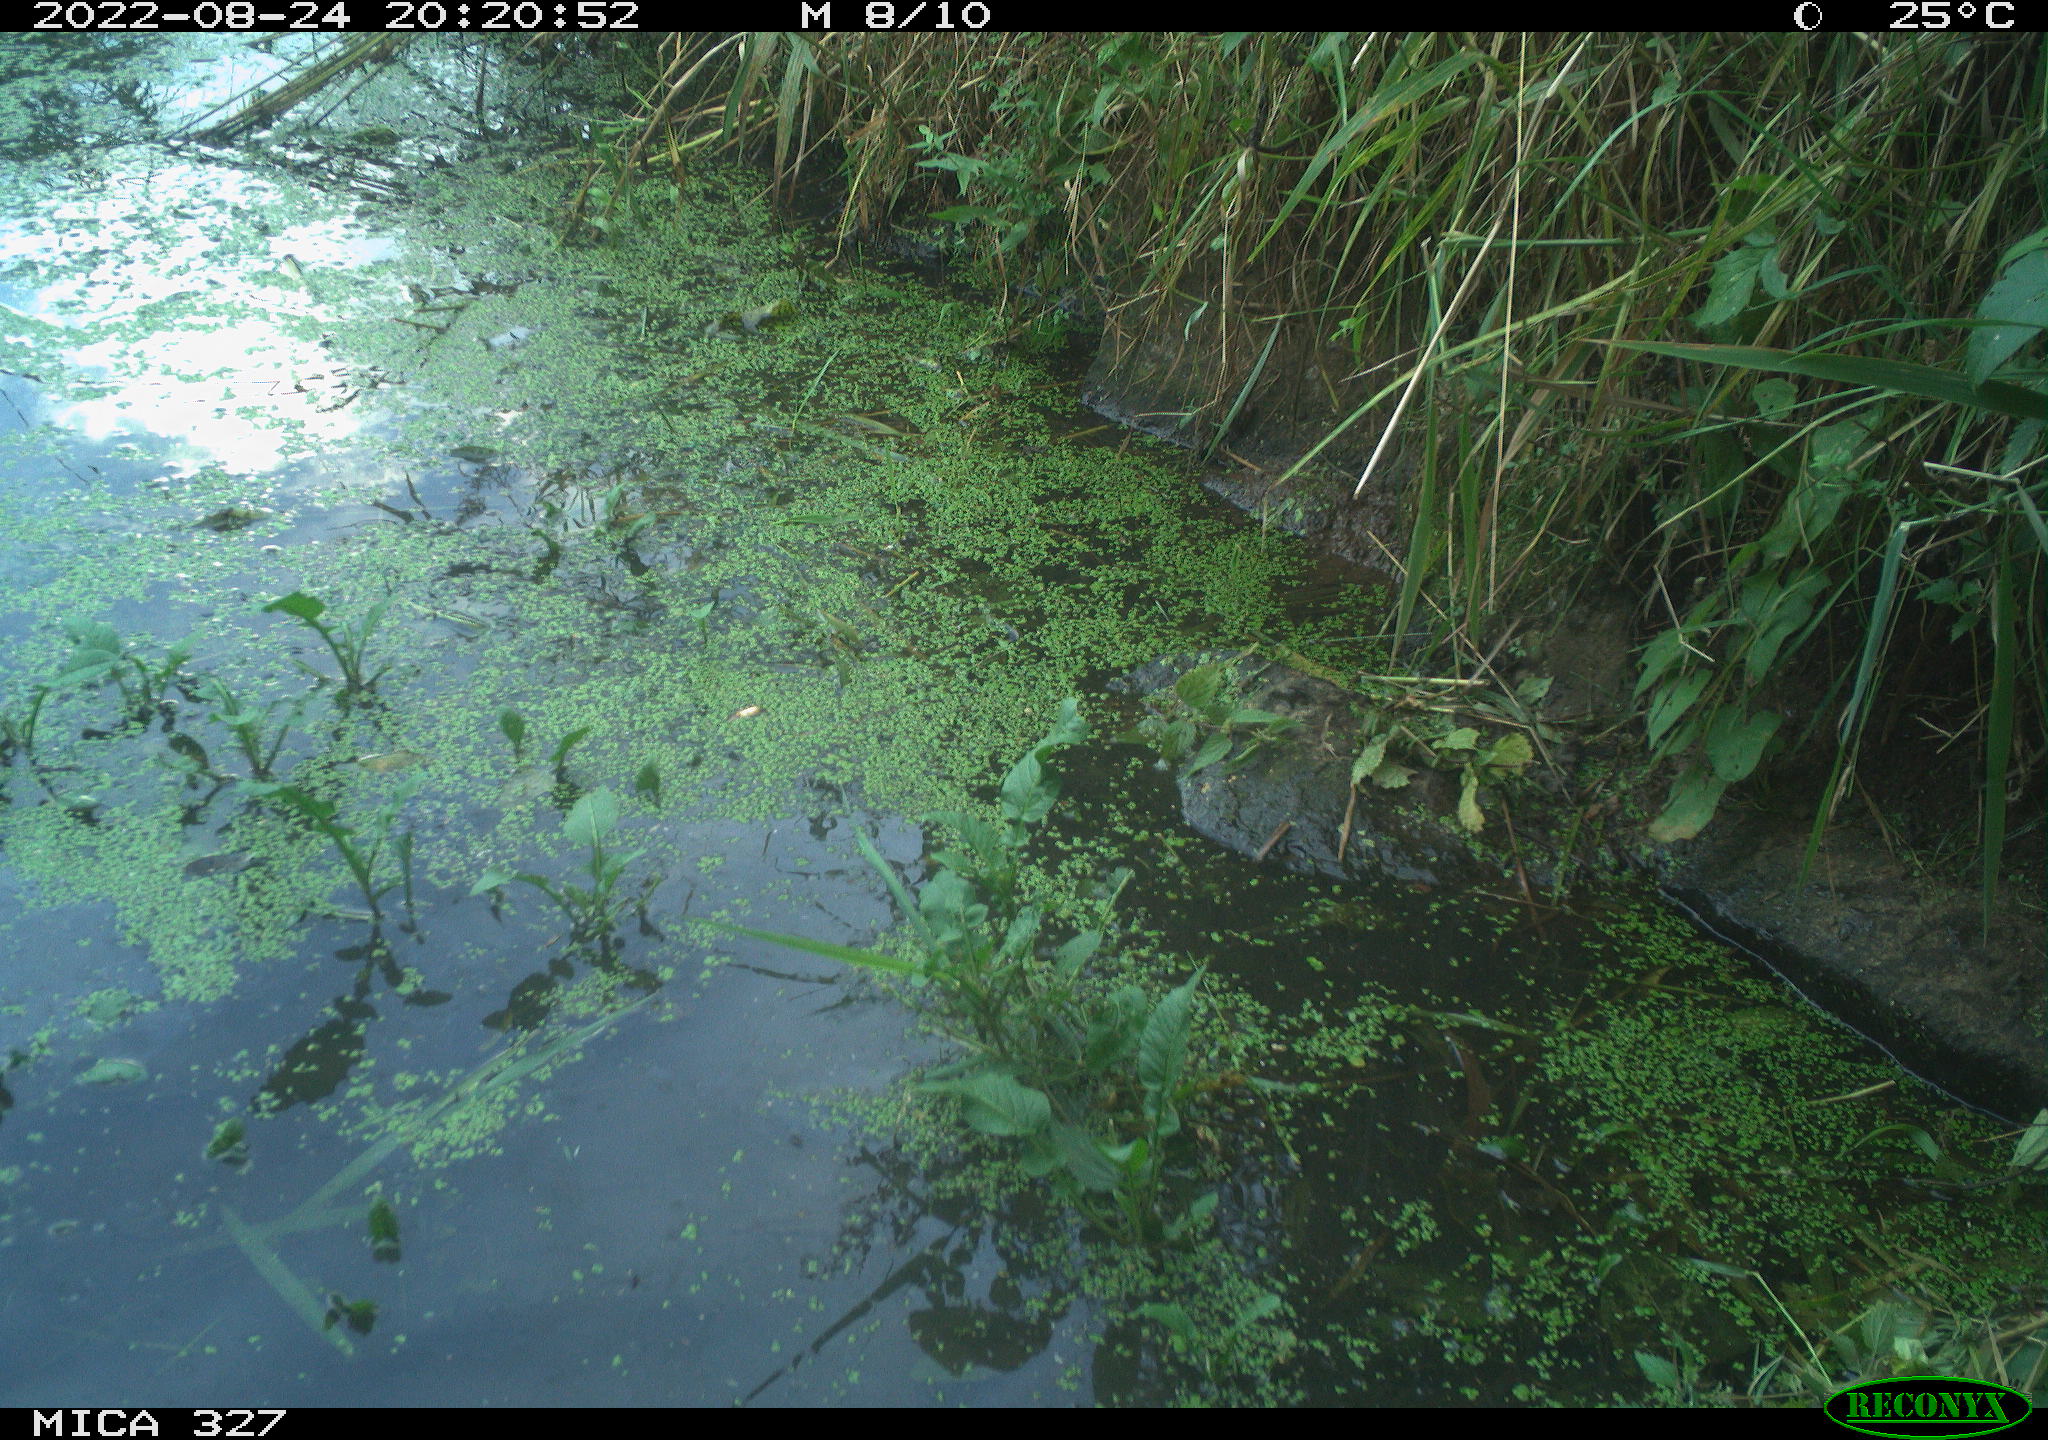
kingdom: Animalia
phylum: Chordata
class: Mammalia
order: Rodentia
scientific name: Rodentia
